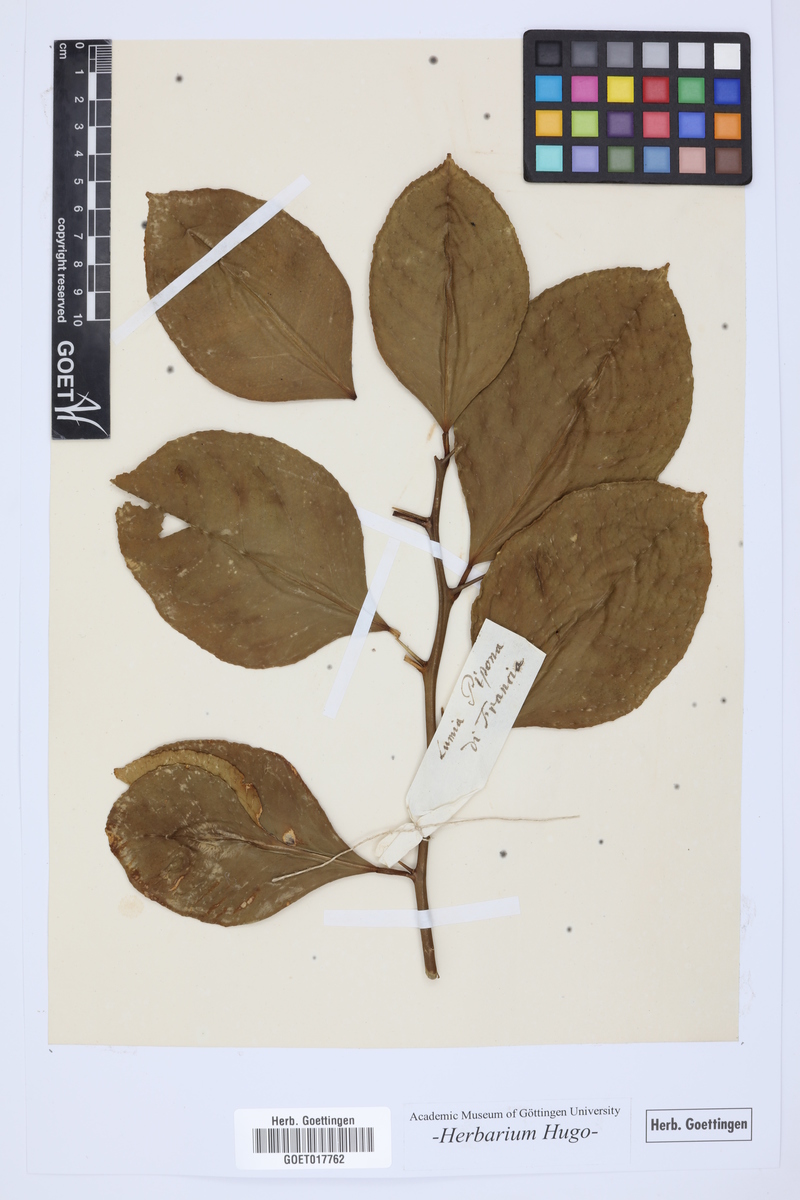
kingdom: Plantae
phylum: Tracheophyta
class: Magnoliopsida
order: Sapindales
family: Rutaceae
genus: Citrus
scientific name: Citrus
